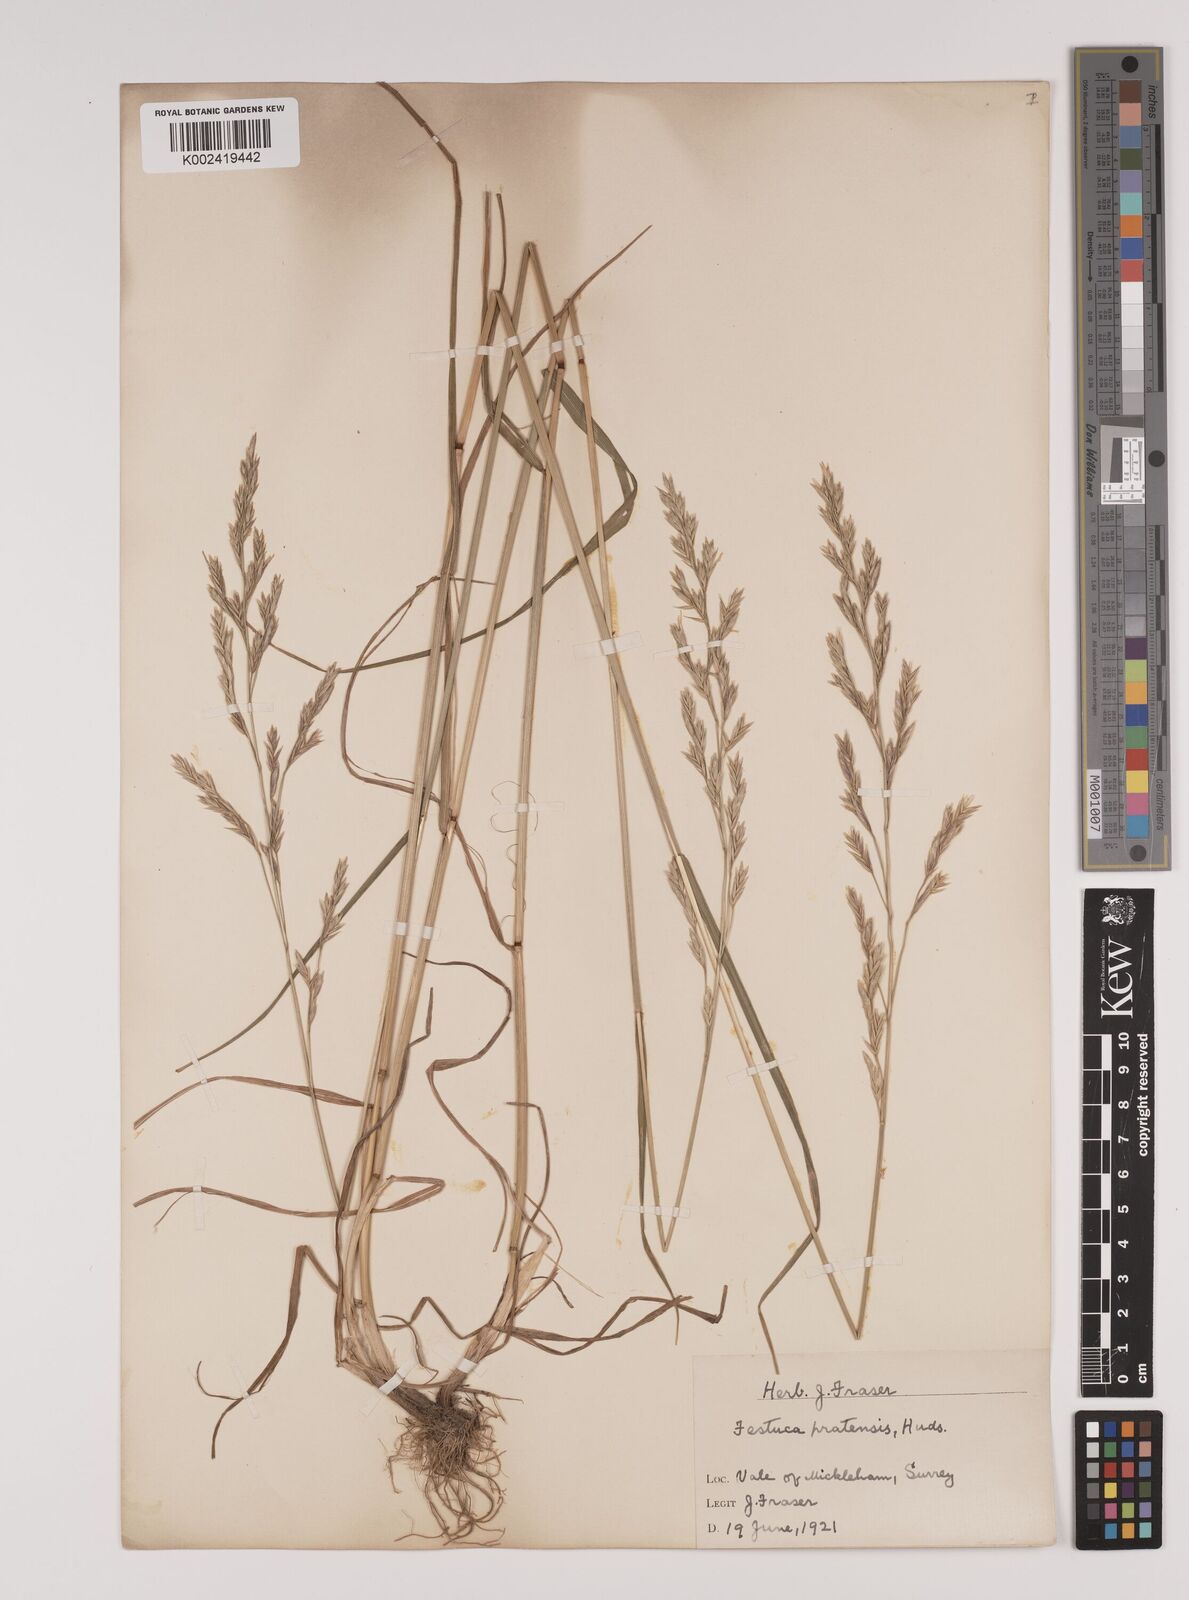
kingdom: Plantae
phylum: Tracheophyta
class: Liliopsida
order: Poales
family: Poaceae
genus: Lolium
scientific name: Lolium pratense
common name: Dover grass
